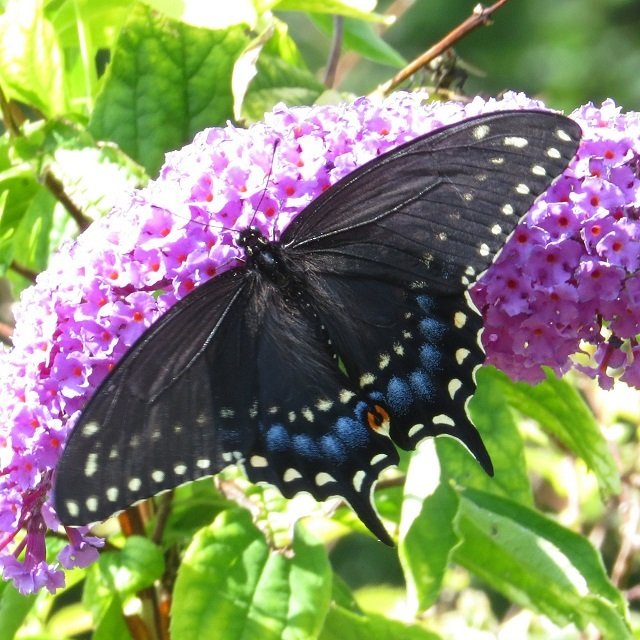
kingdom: Animalia
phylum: Arthropoda
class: Insecta
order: Lepidoptera
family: Papilionidae
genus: Papilio
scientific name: Papilio polyxenes
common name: Black Swallowtail
